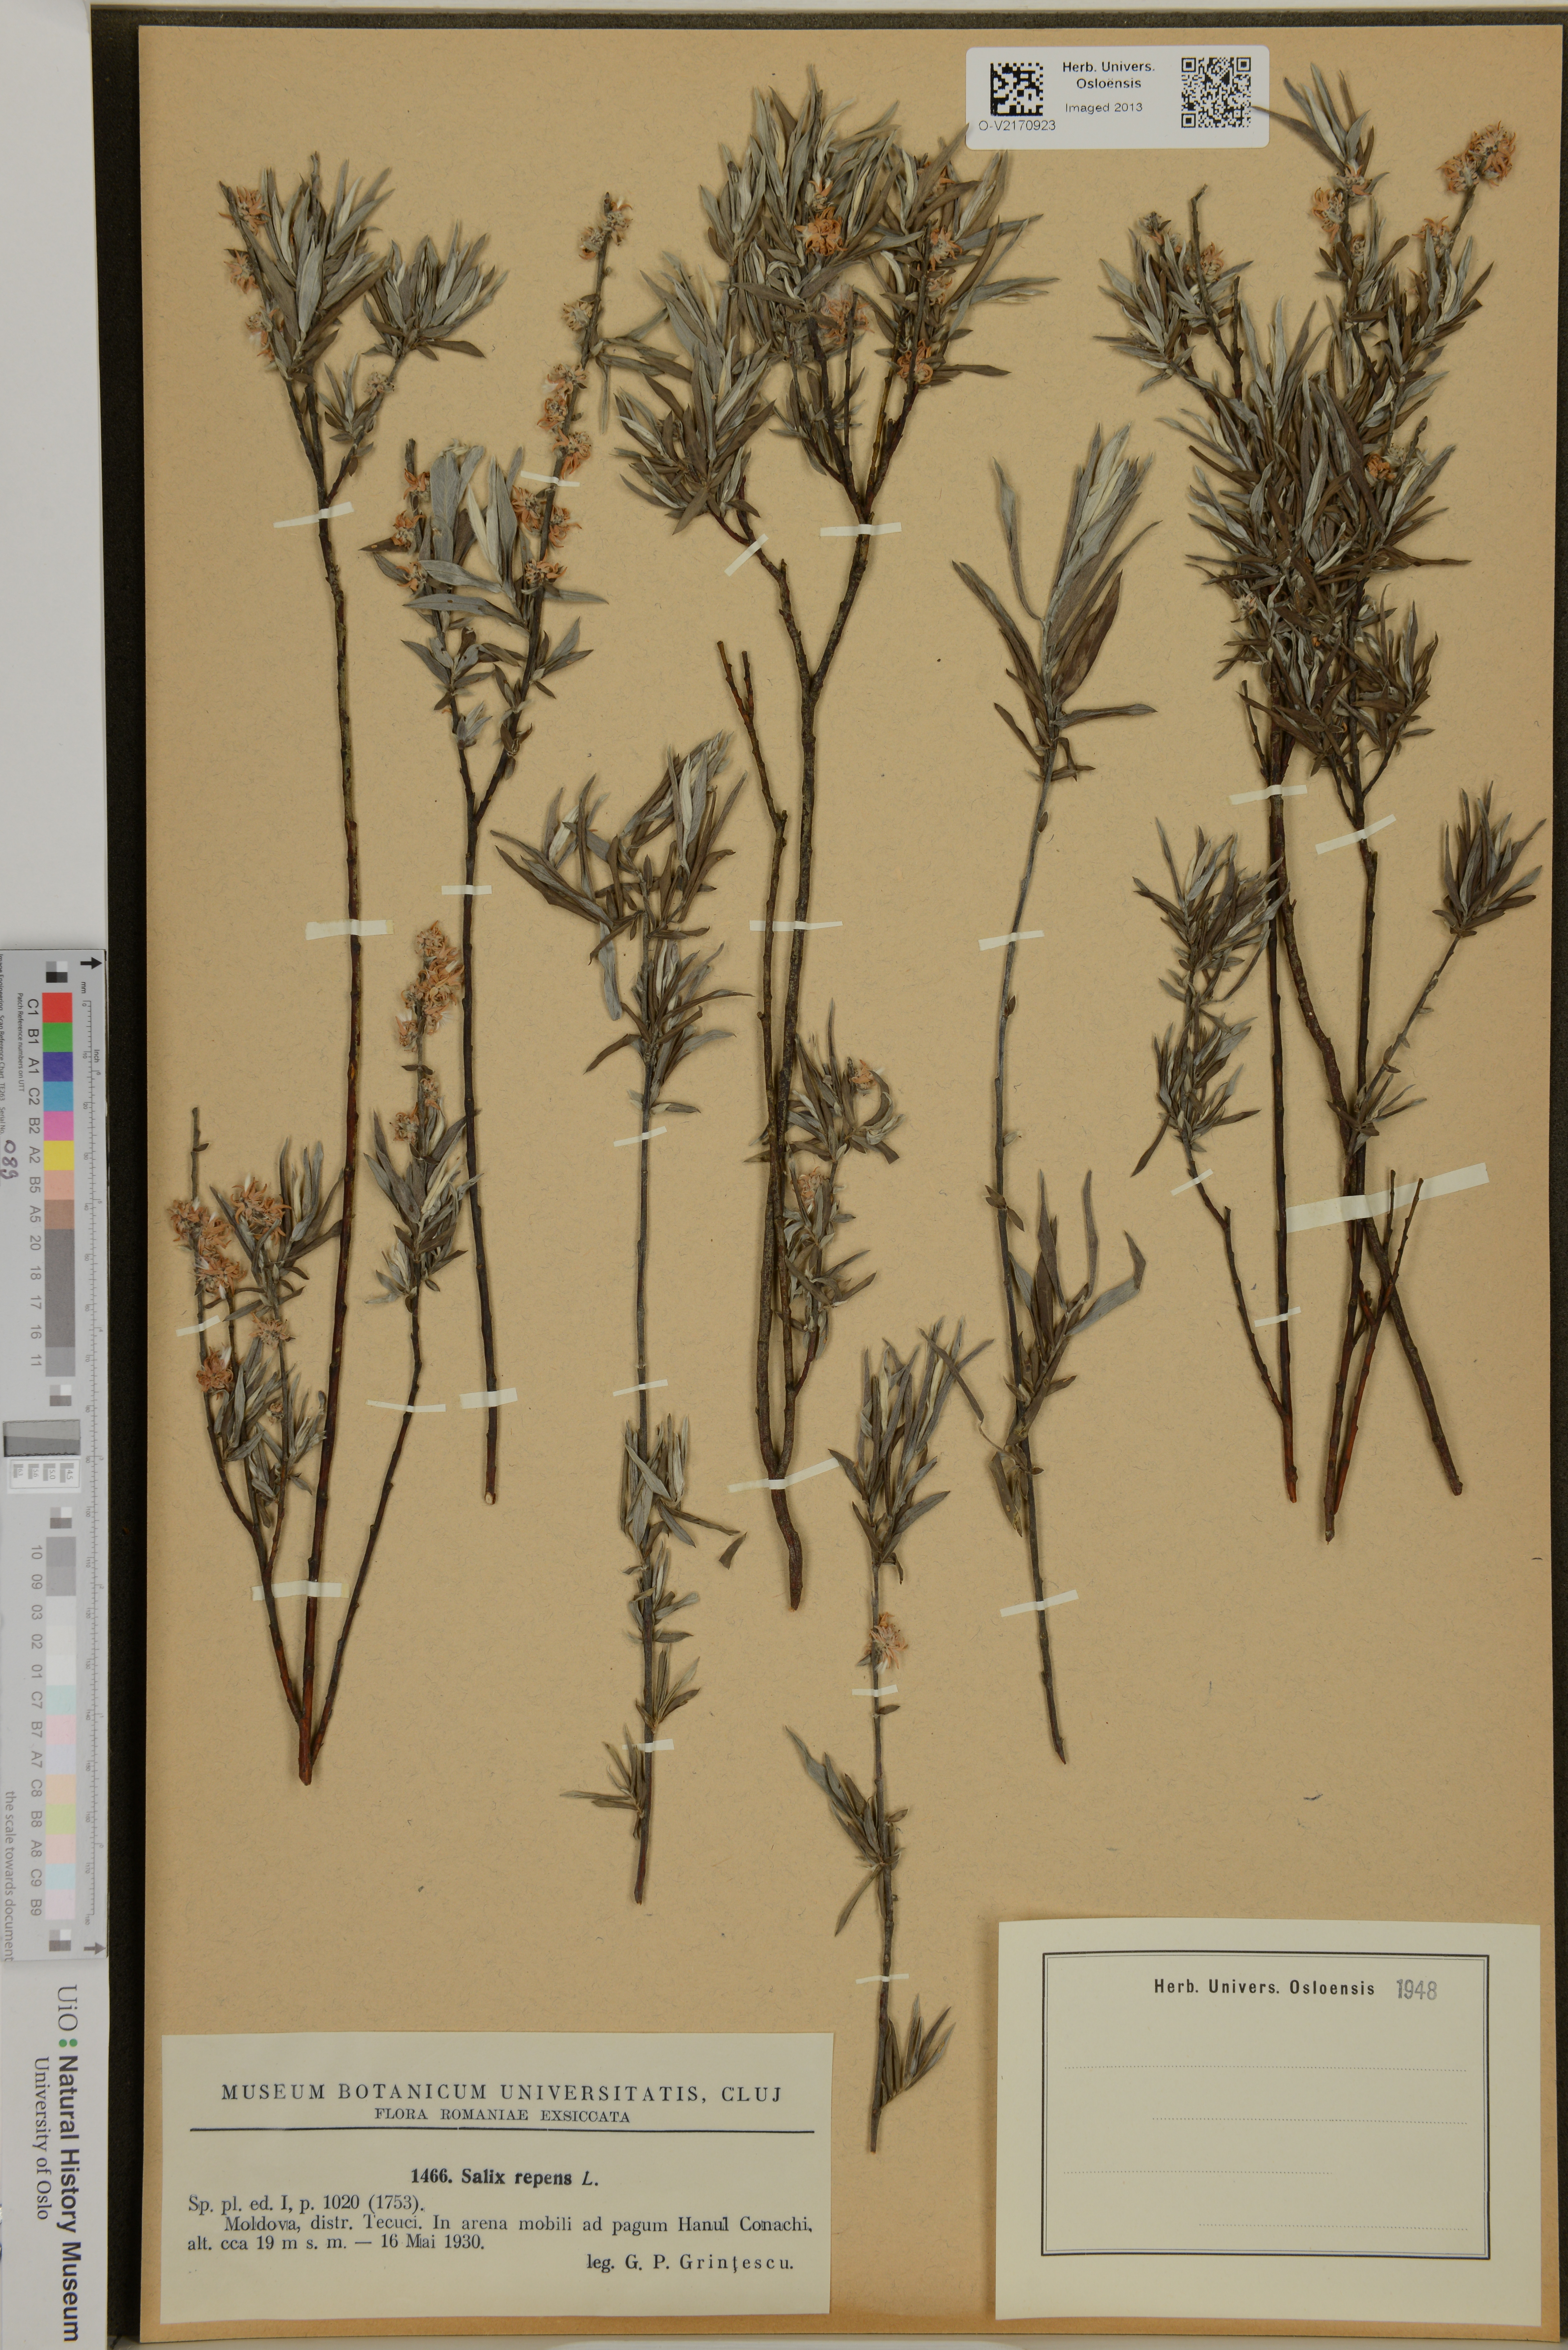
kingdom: Plantae
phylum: Tracheophyta
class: Magnoliopsida
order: Malpighiales
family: Salicaceae
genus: Salix
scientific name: Salix repens
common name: Creeping willow
